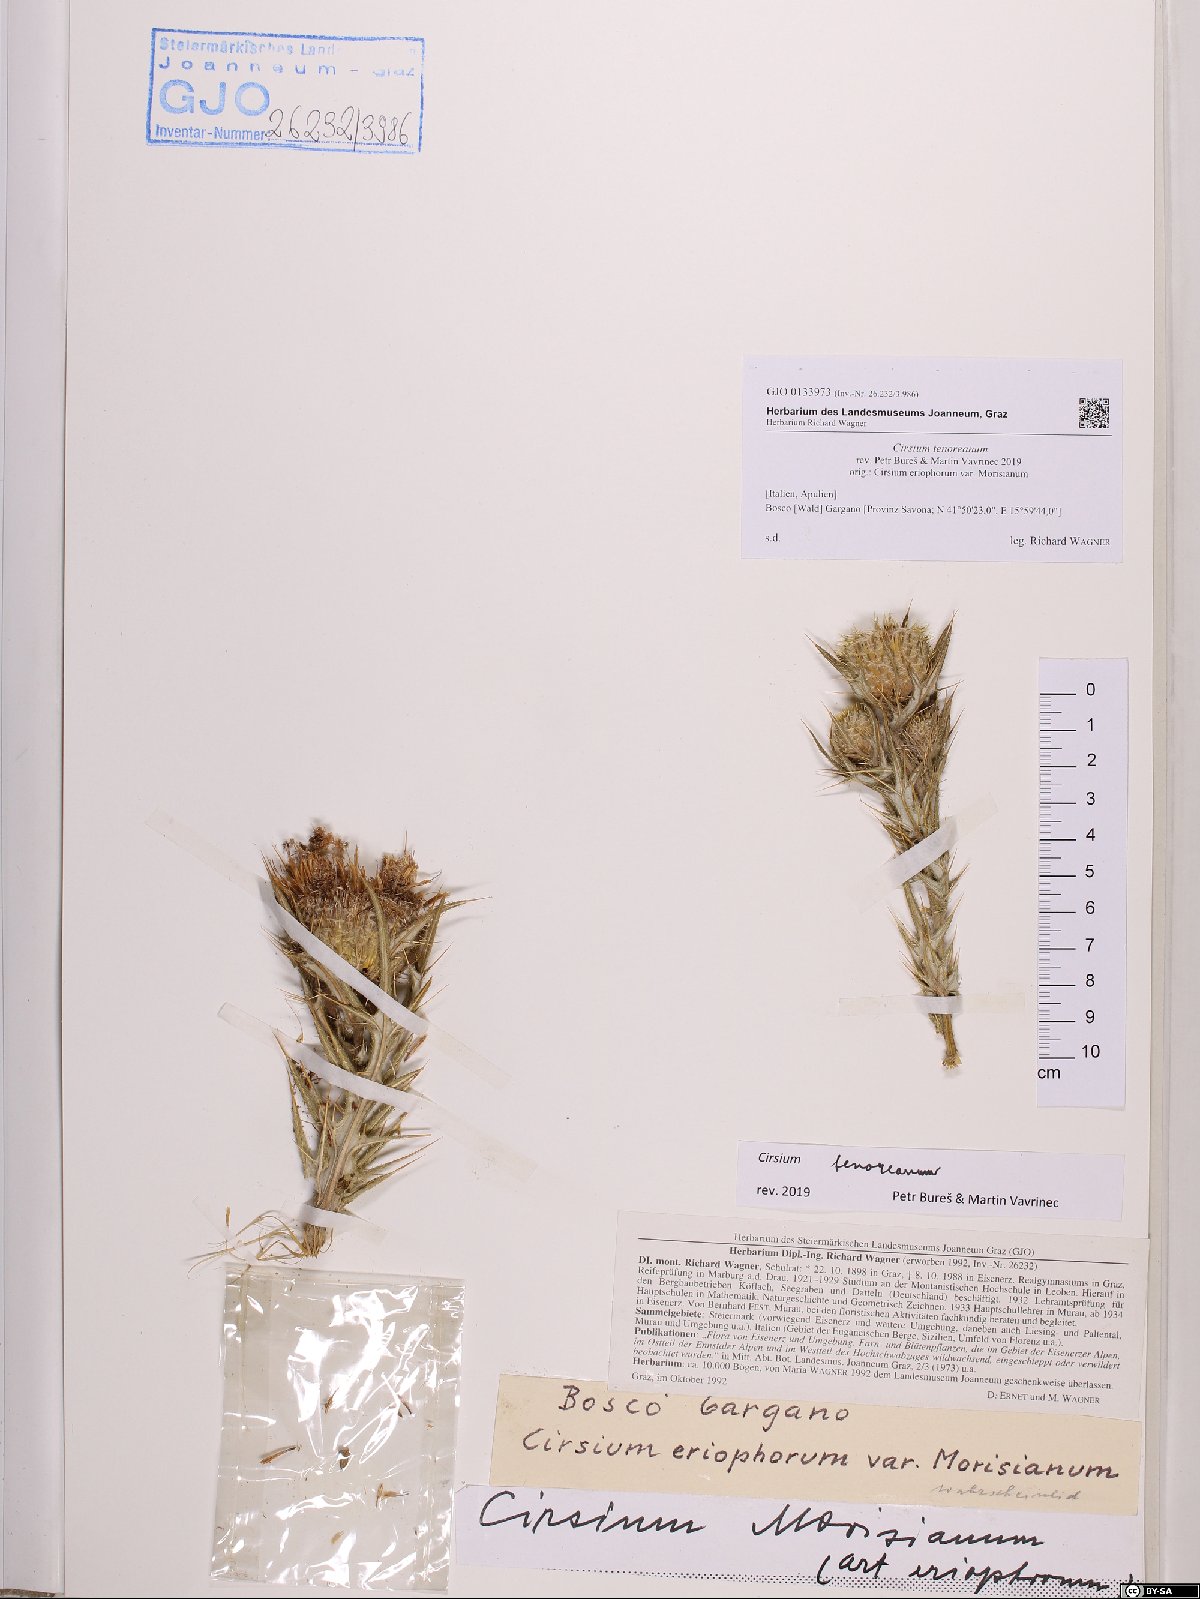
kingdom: Plantae
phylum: Tracheophyta
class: Magnoliopsida
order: Asterales
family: Asteraceae
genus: Lophiolepis
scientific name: Lophiolepis tenoreana
